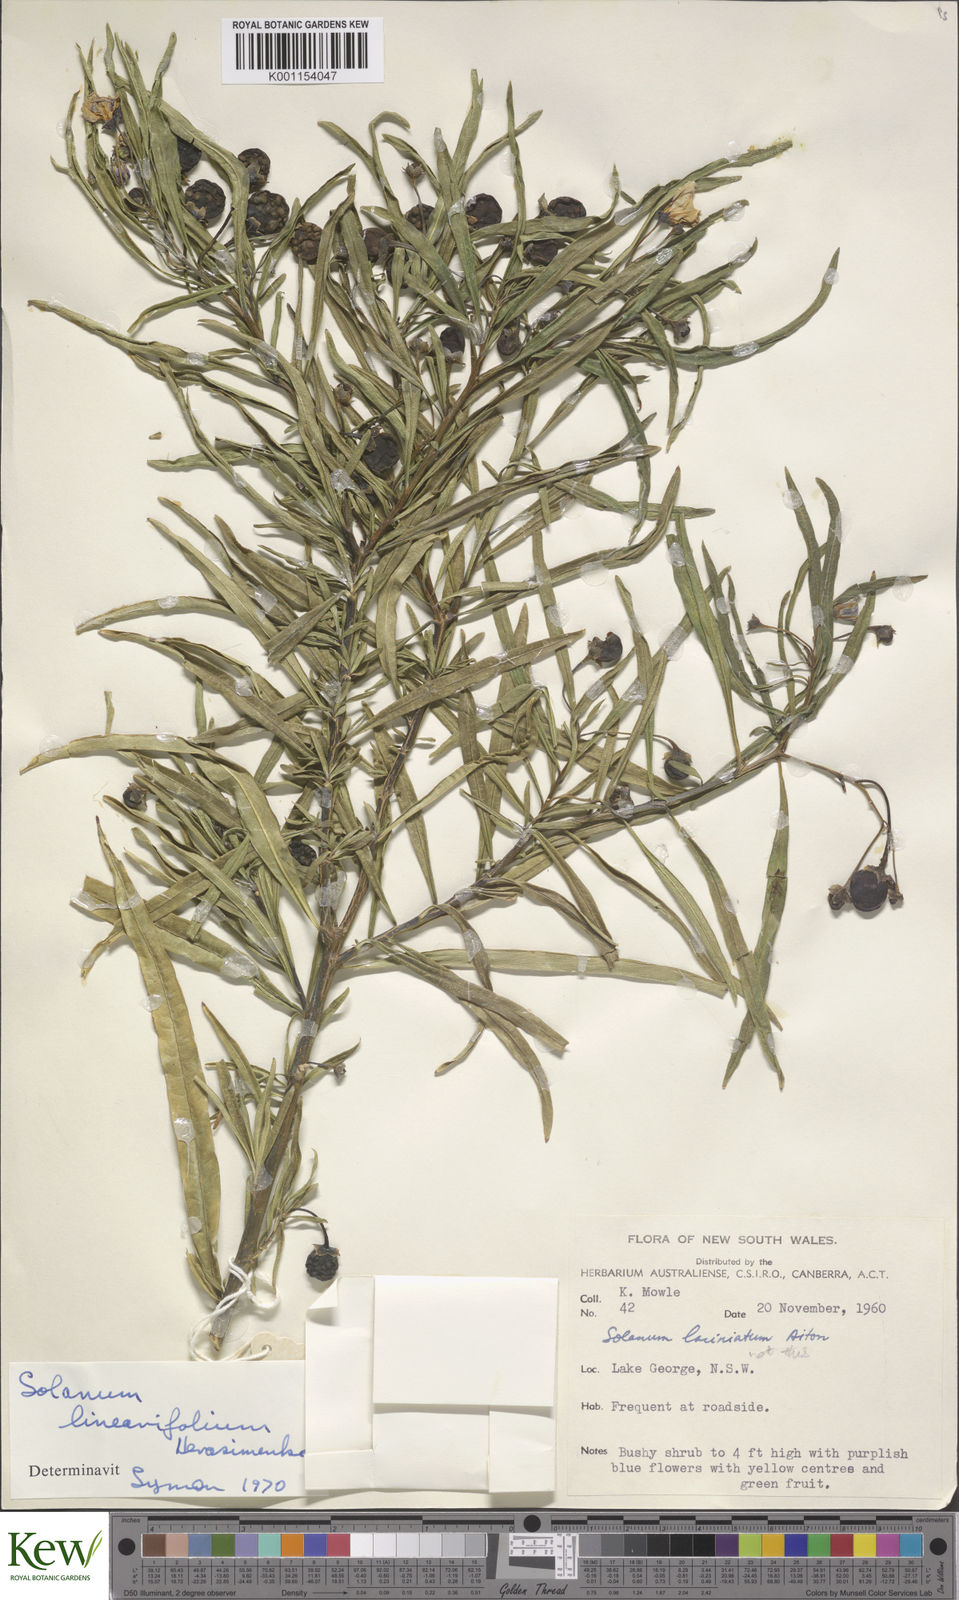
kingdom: Plantae
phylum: Tracheophyta
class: Magnoliopsida
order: Solanales
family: Solanaceae
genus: Solanum
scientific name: Solanum linearifolium
